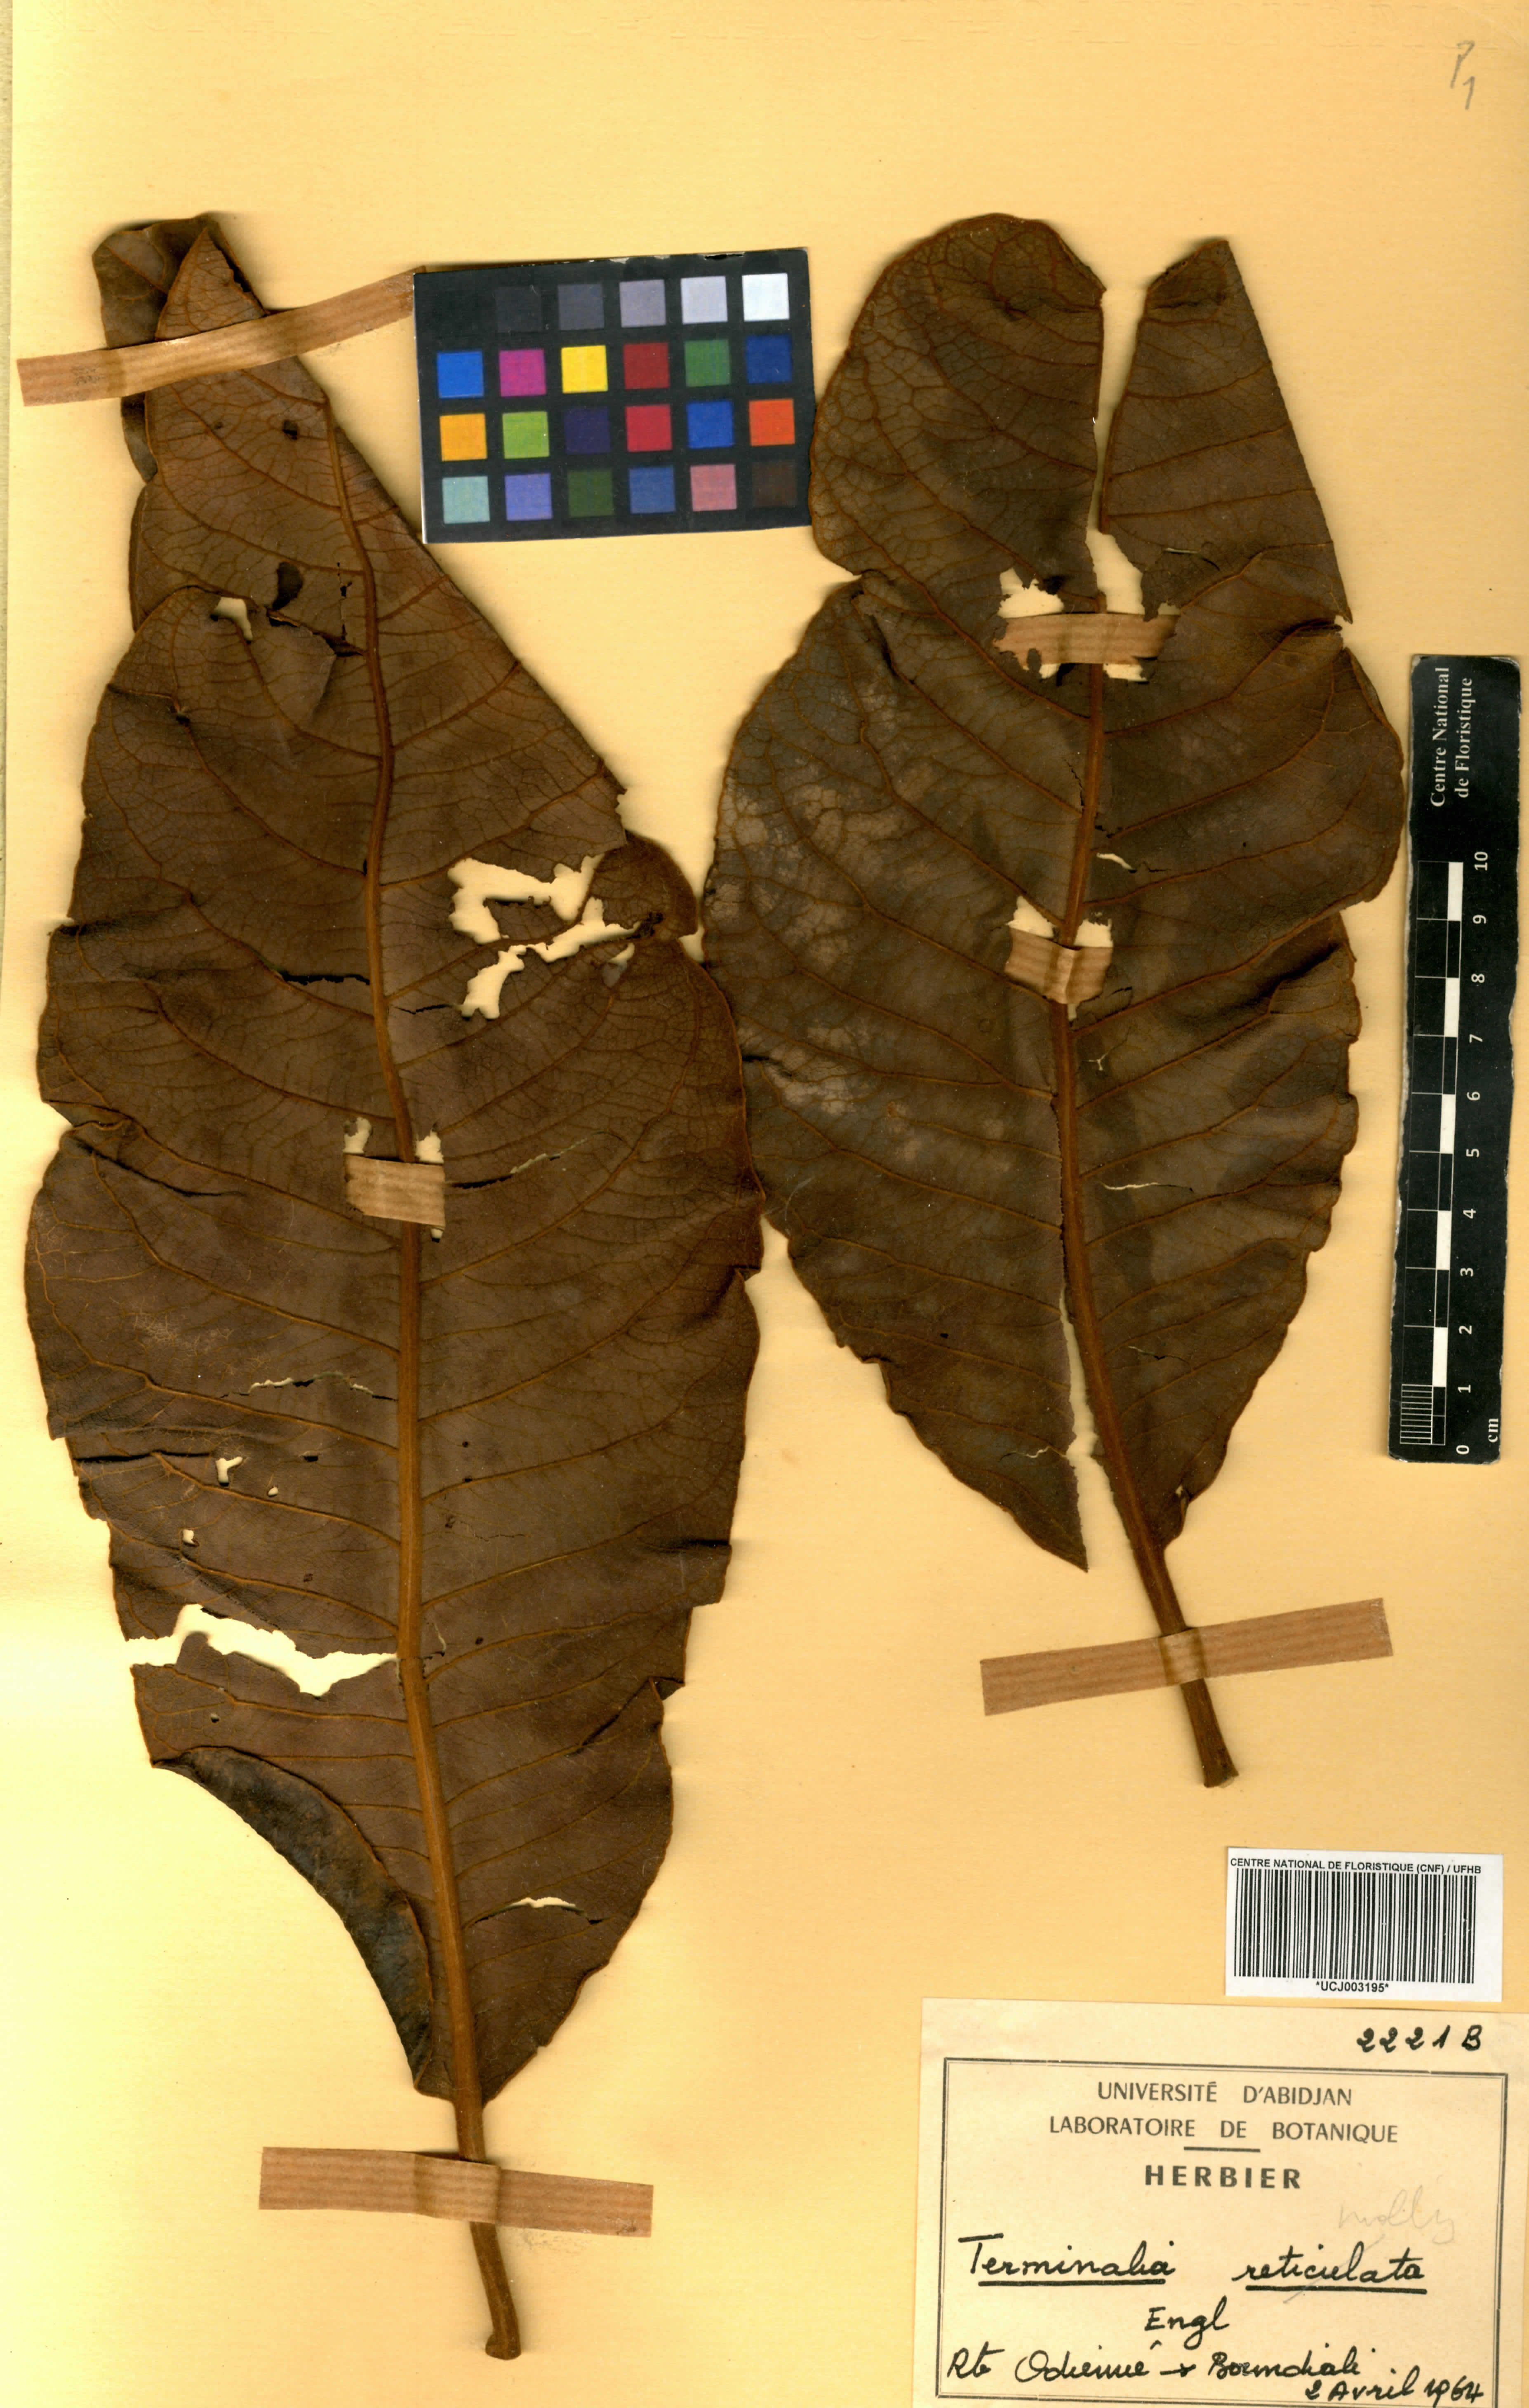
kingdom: Plantae
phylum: Tracheophyta
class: Magnoliopsida
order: Myrtales
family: Combretaceae
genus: Terminalia
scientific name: Terminalia mollis
